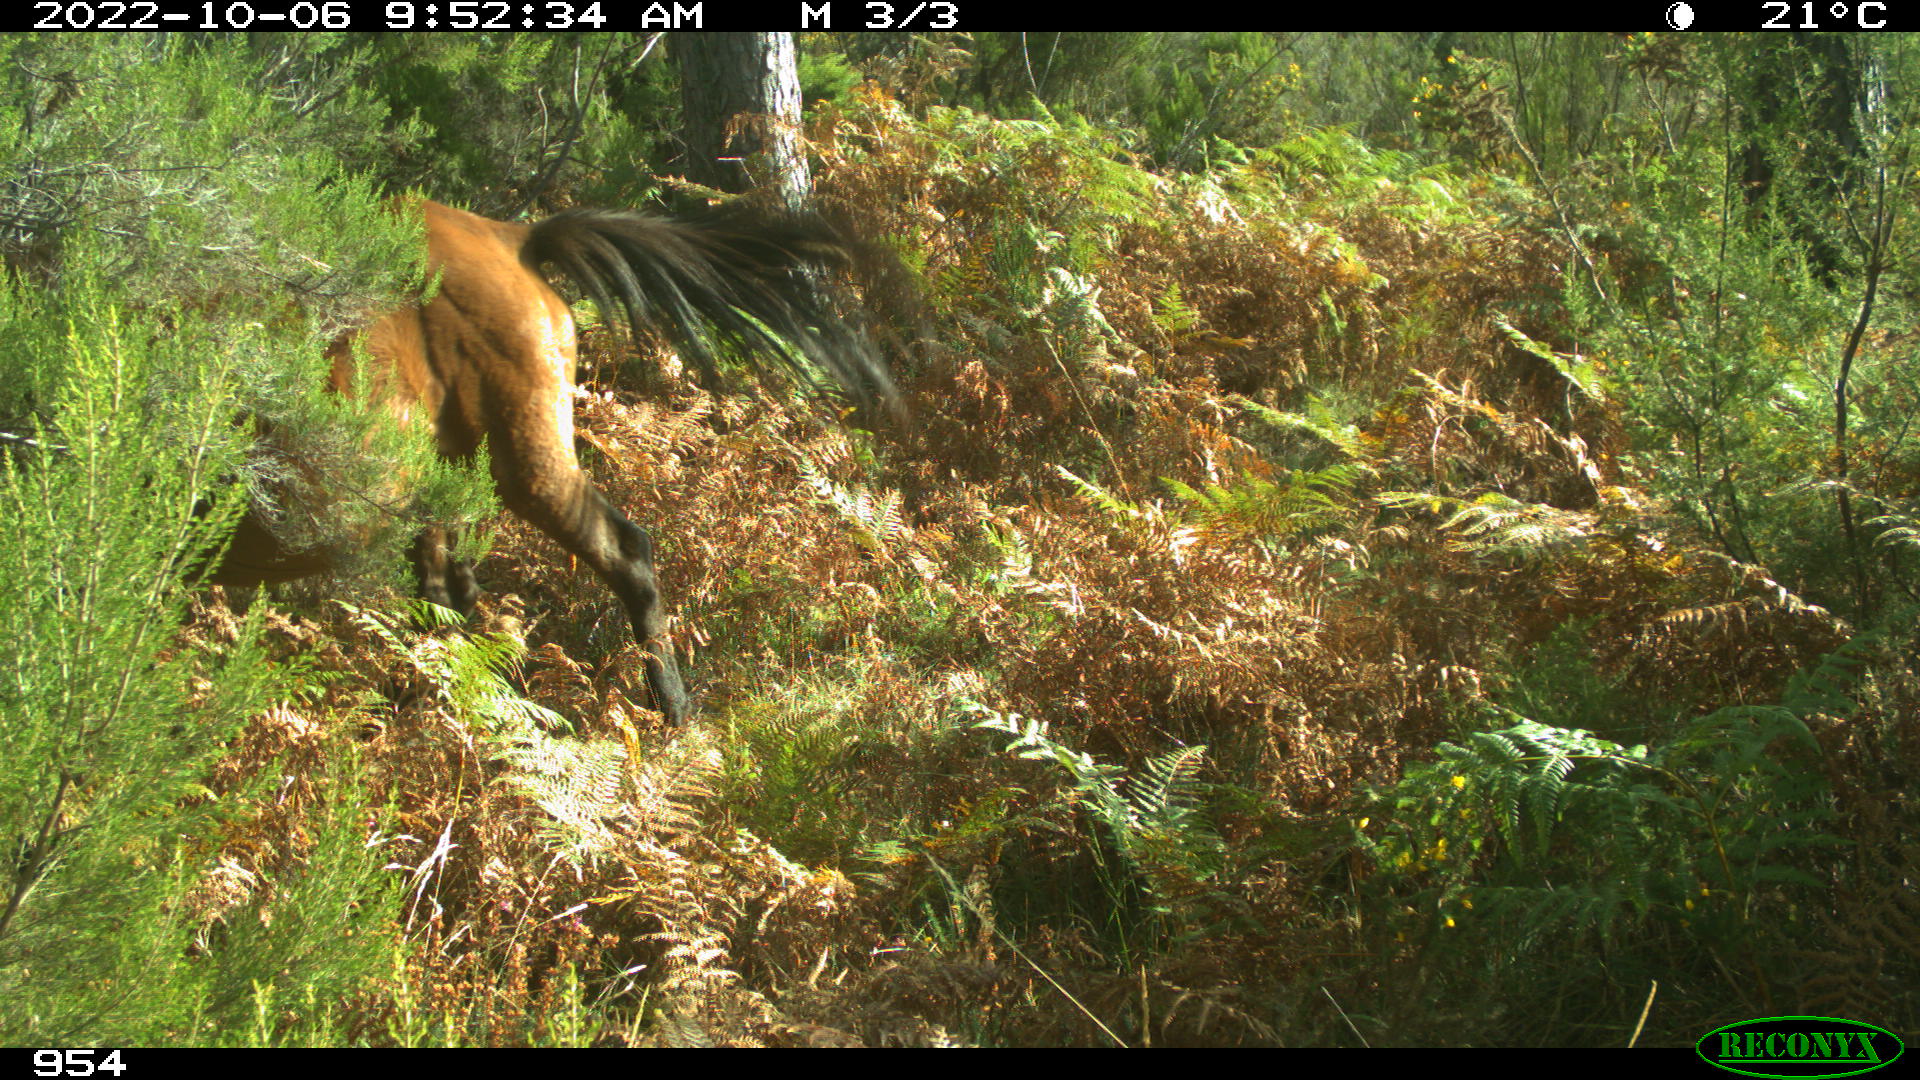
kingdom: Animalia
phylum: Chordata
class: Mammalia
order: Perissodactyla
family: Equidae
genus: Equus
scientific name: Equus caballus
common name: Horse
